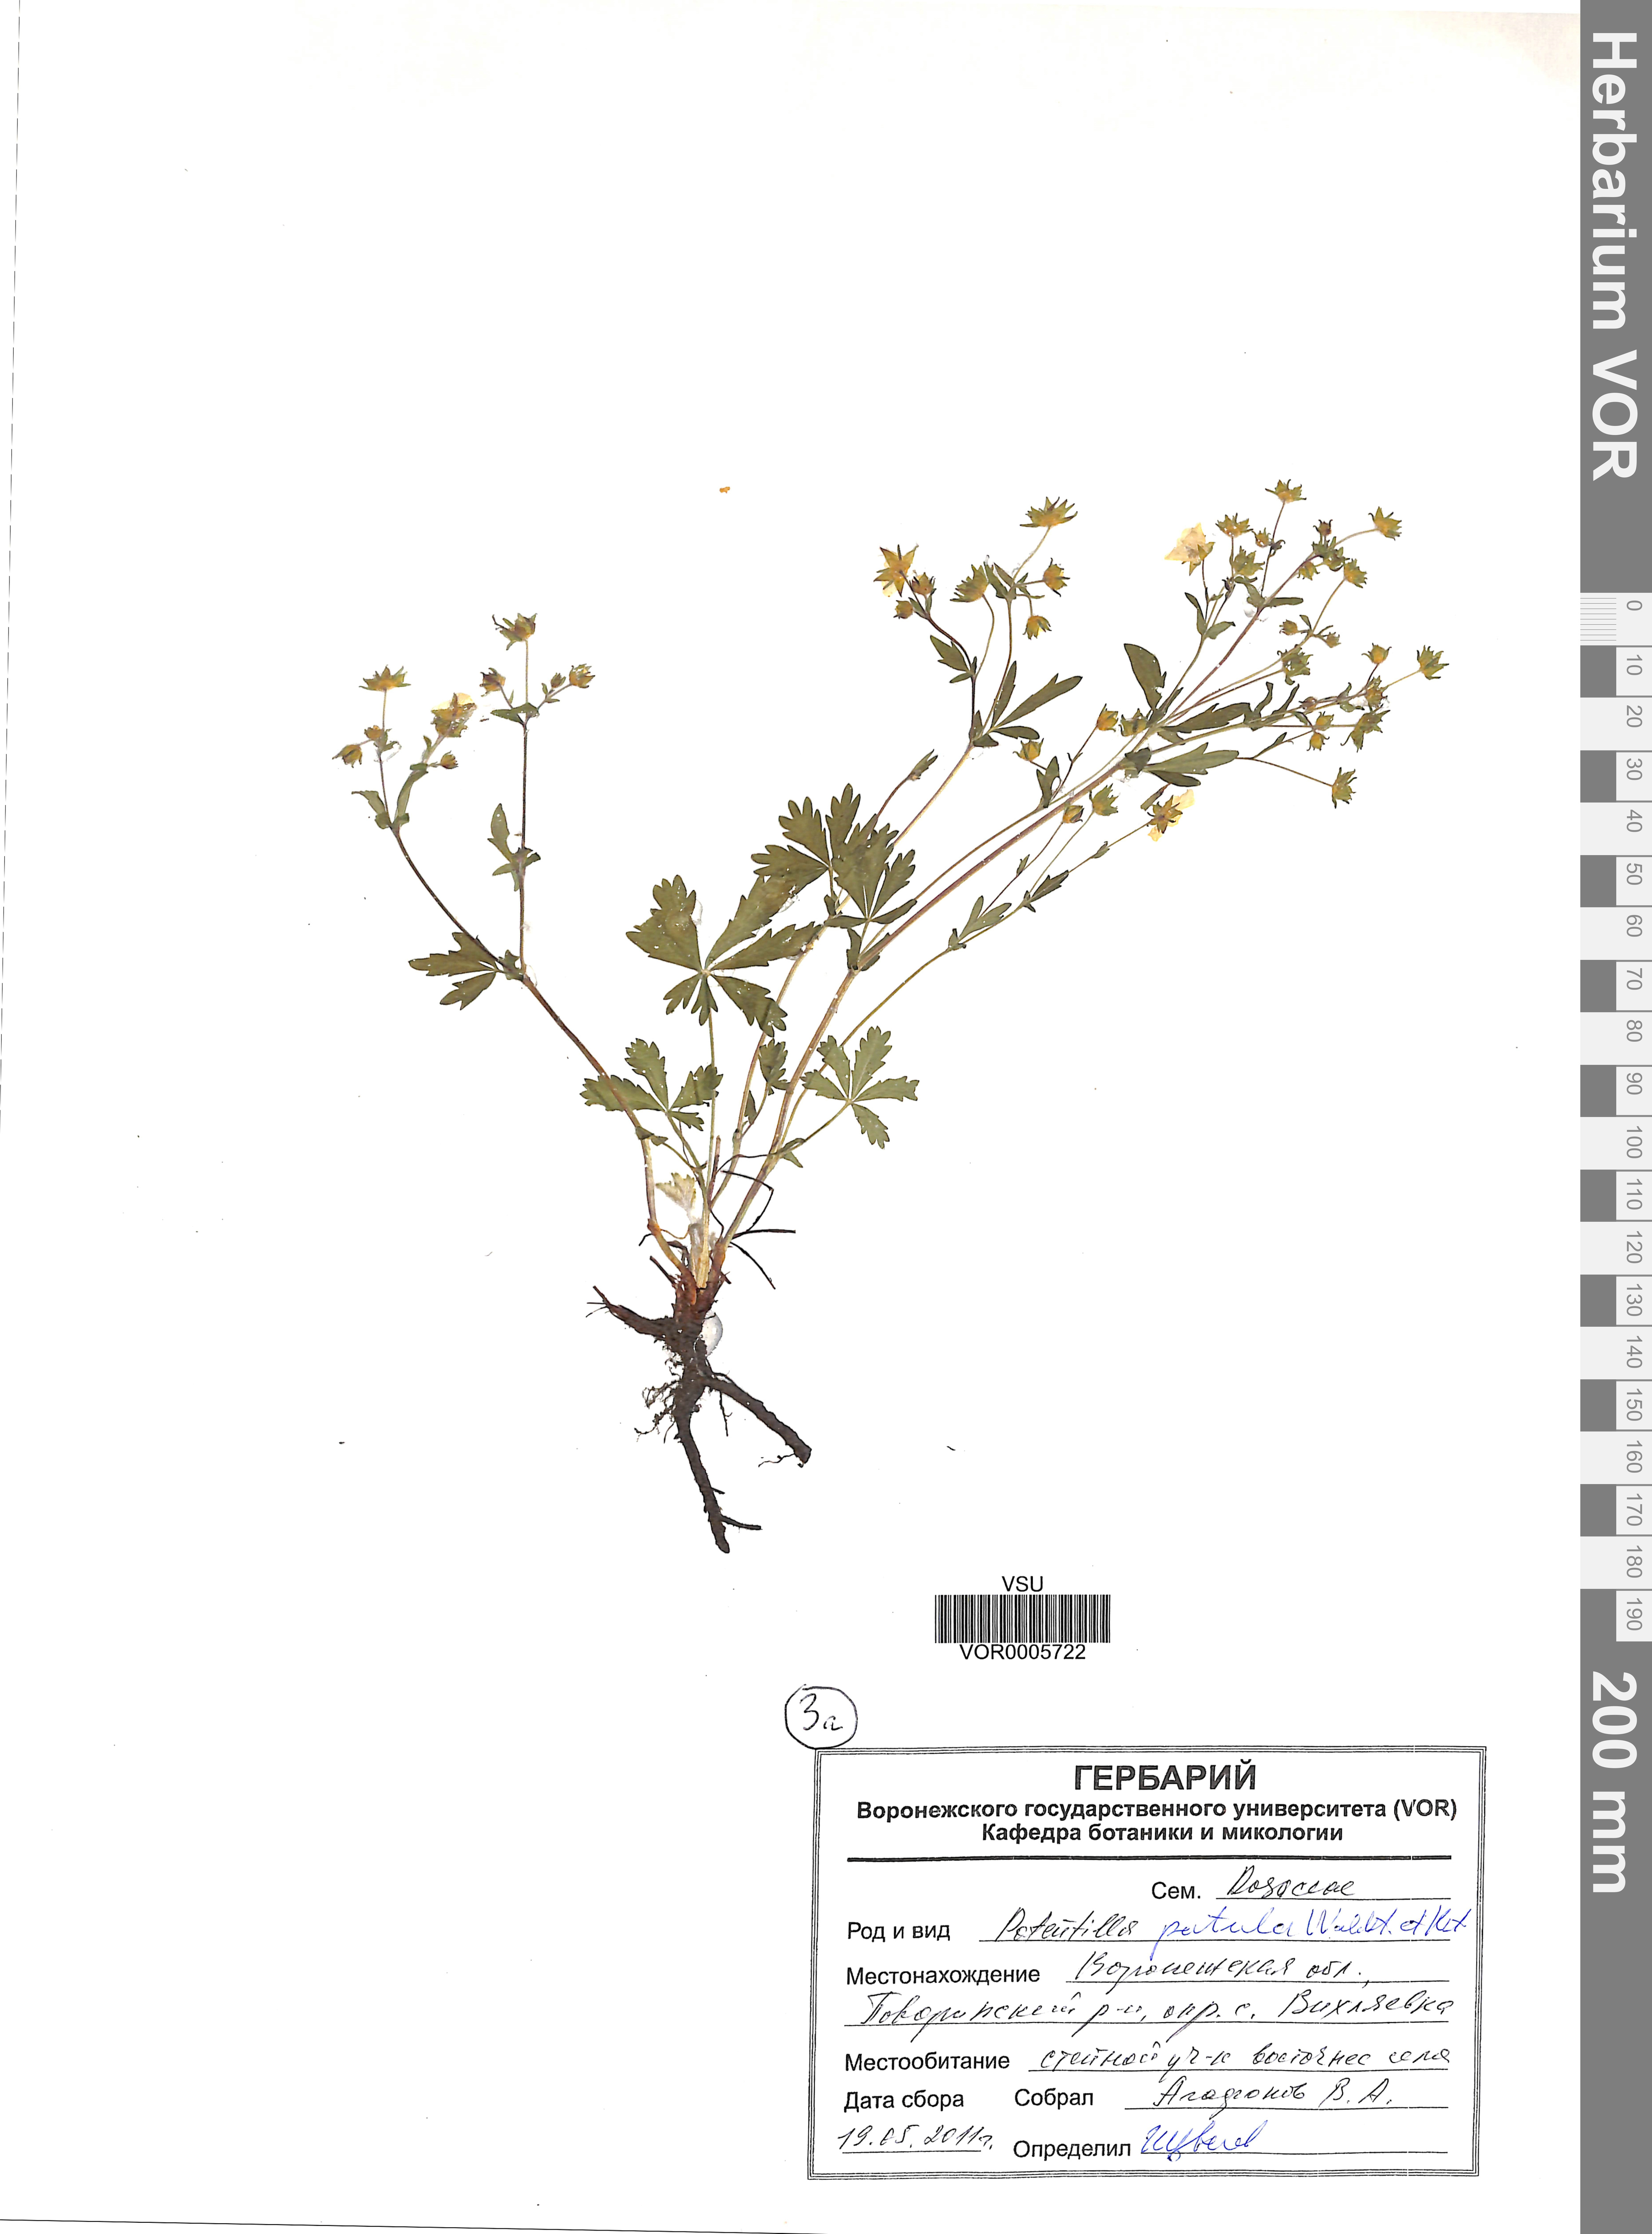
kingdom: Plantae
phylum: Tracheophyta
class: Magnoliopsida
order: Rosales
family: Rosaceae
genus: Potentilla
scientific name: Potentilla patula
